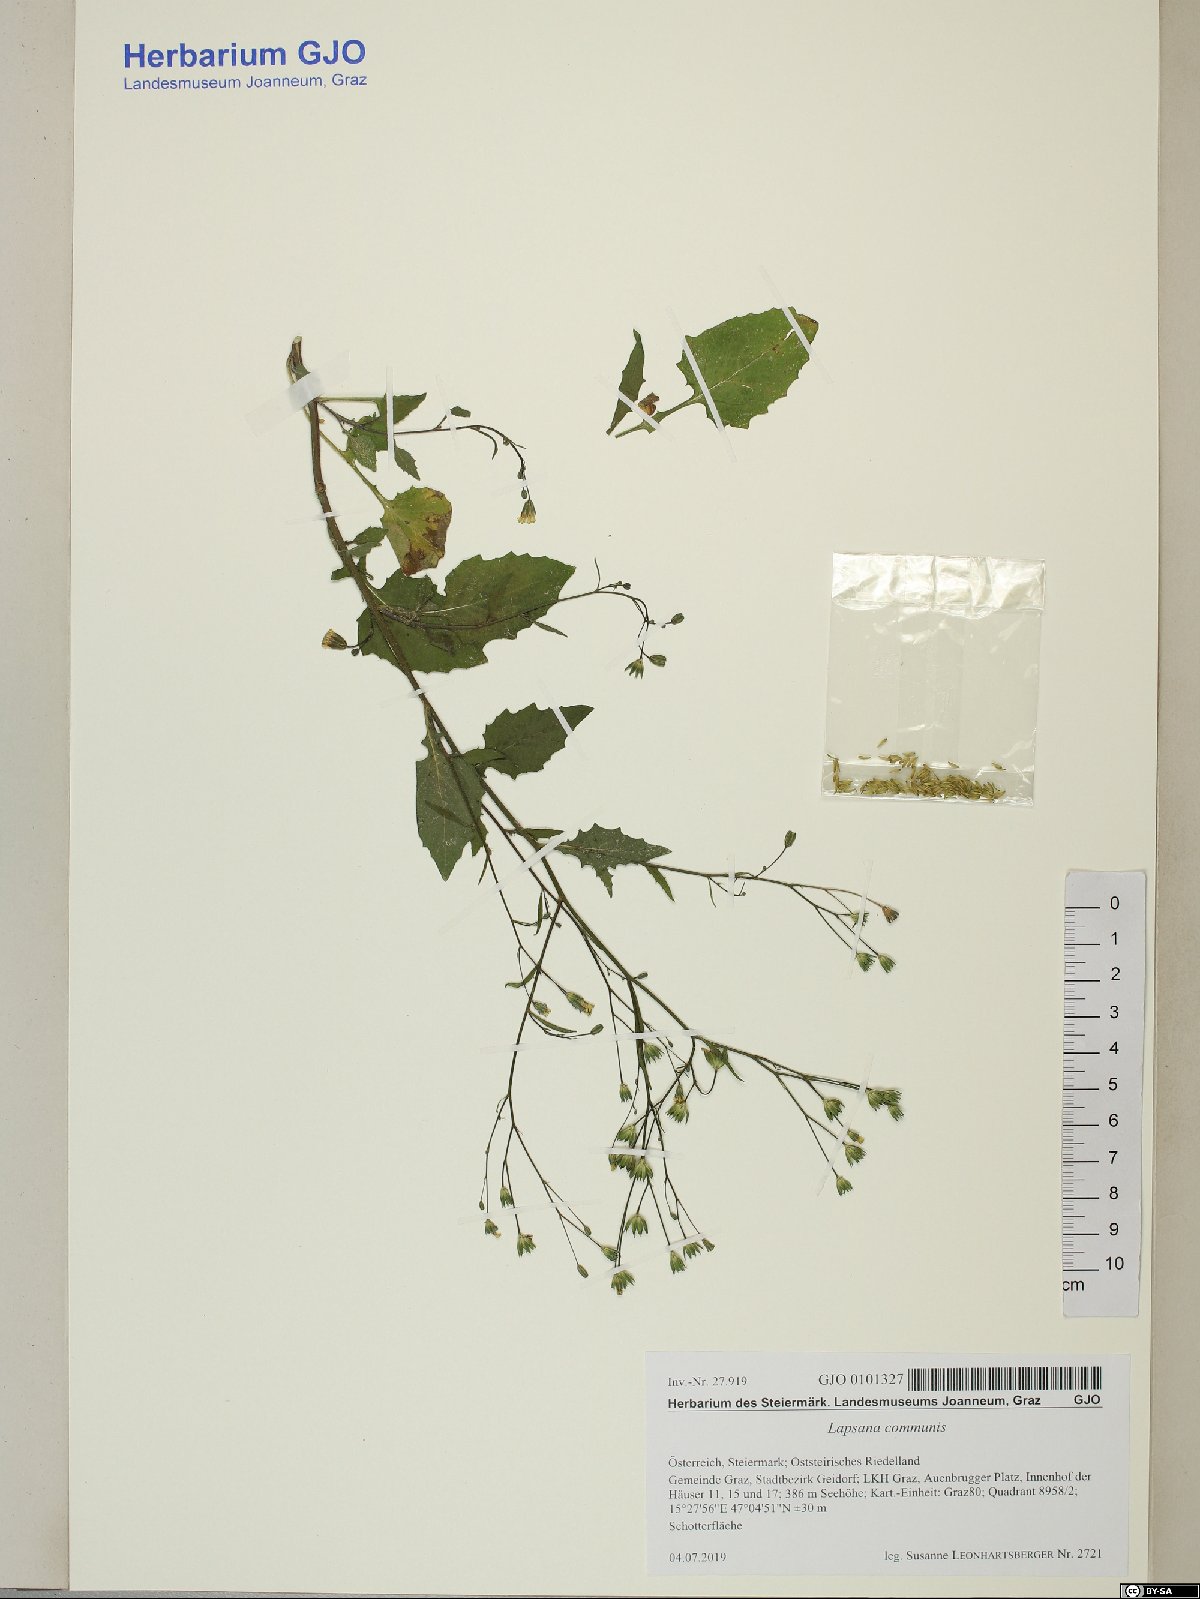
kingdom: Plantae
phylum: Tracheophyta
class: Magnoliopsida
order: Asterales
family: Asteraceae
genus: Lapsana
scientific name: Lapsana communis
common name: Nipplewort
